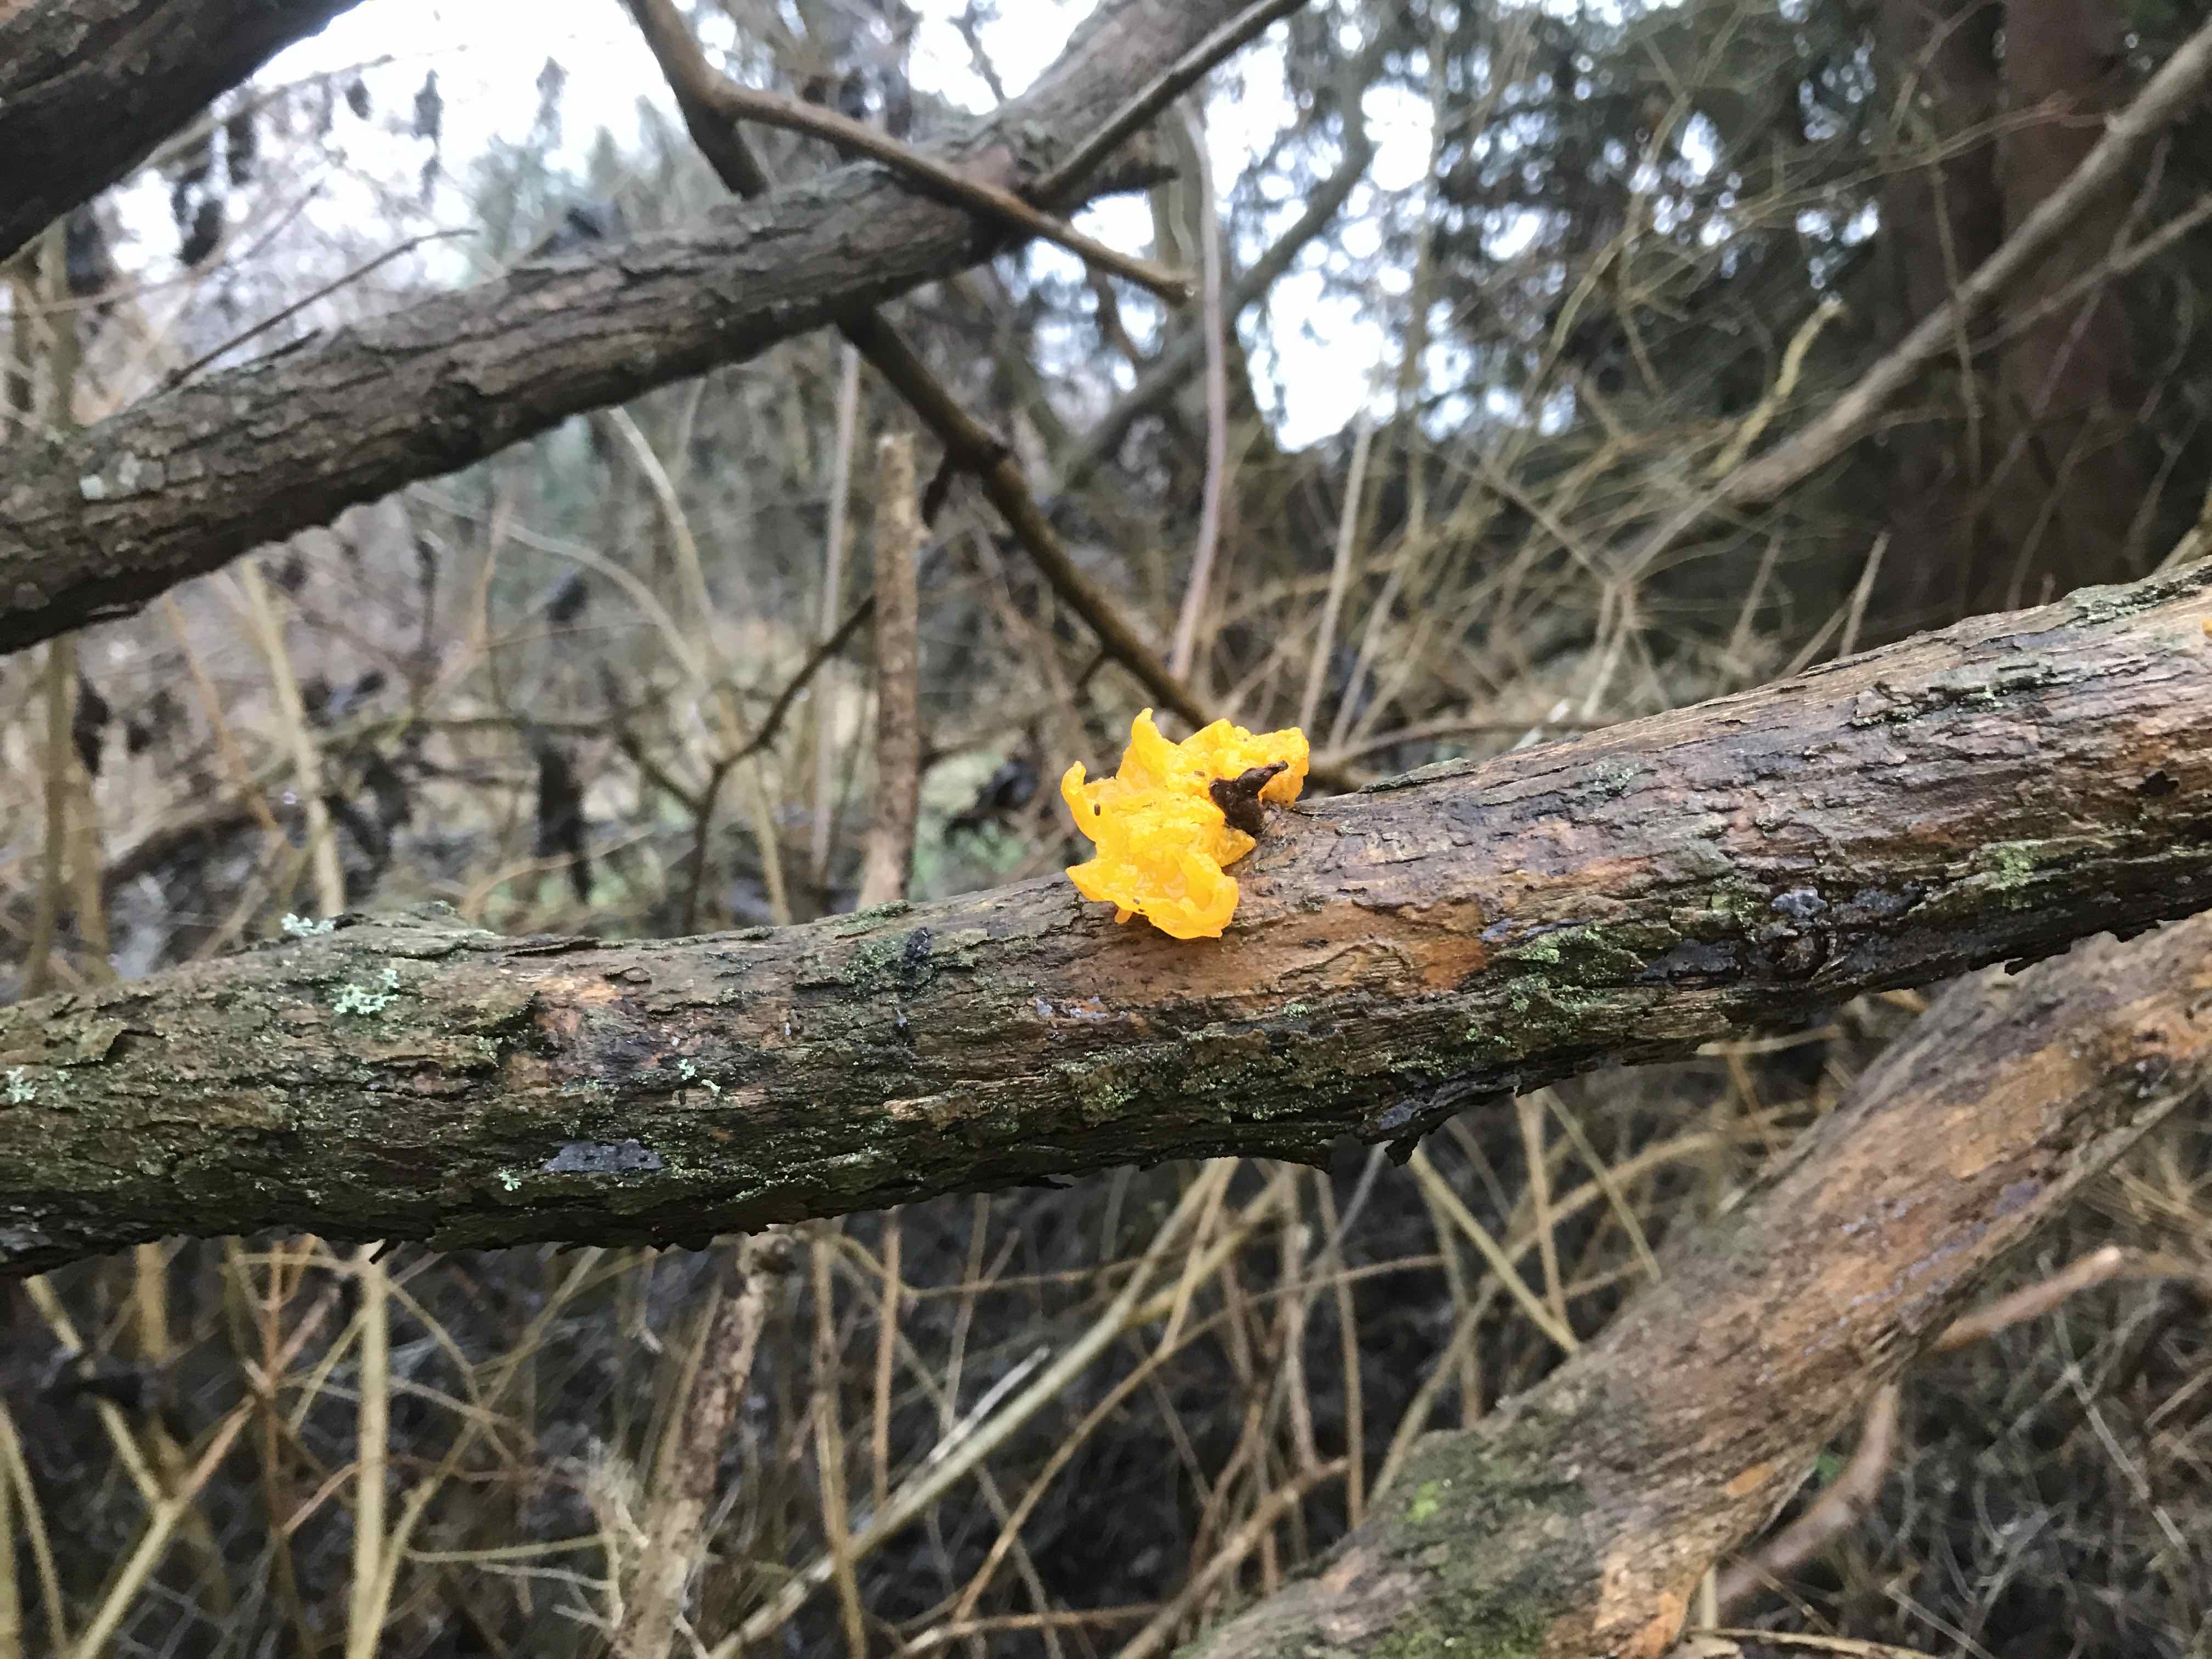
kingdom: Fungi
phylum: Basidiomycota
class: Tremellomycetes
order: Tremellales
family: Tremellaceae
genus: Tremella
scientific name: Tremella mesenterica
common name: gul bævresvamp
